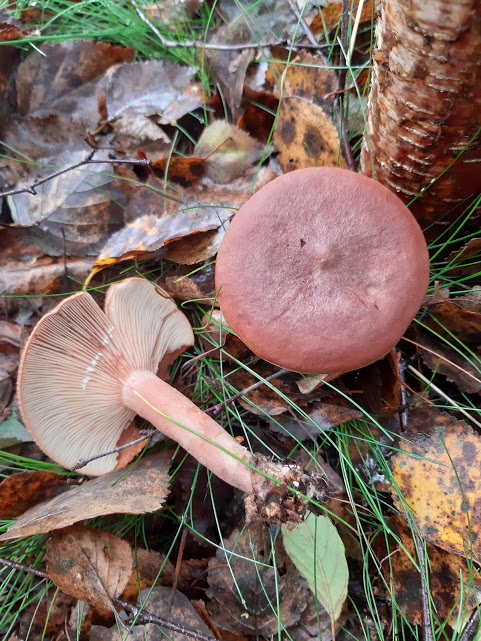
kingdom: Fungi
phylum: Basidiomycota
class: Agaricomycetes
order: Russulales
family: Russulaceae
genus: Lactarius
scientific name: Lactarius rufus
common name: rødbrun mælkehat
